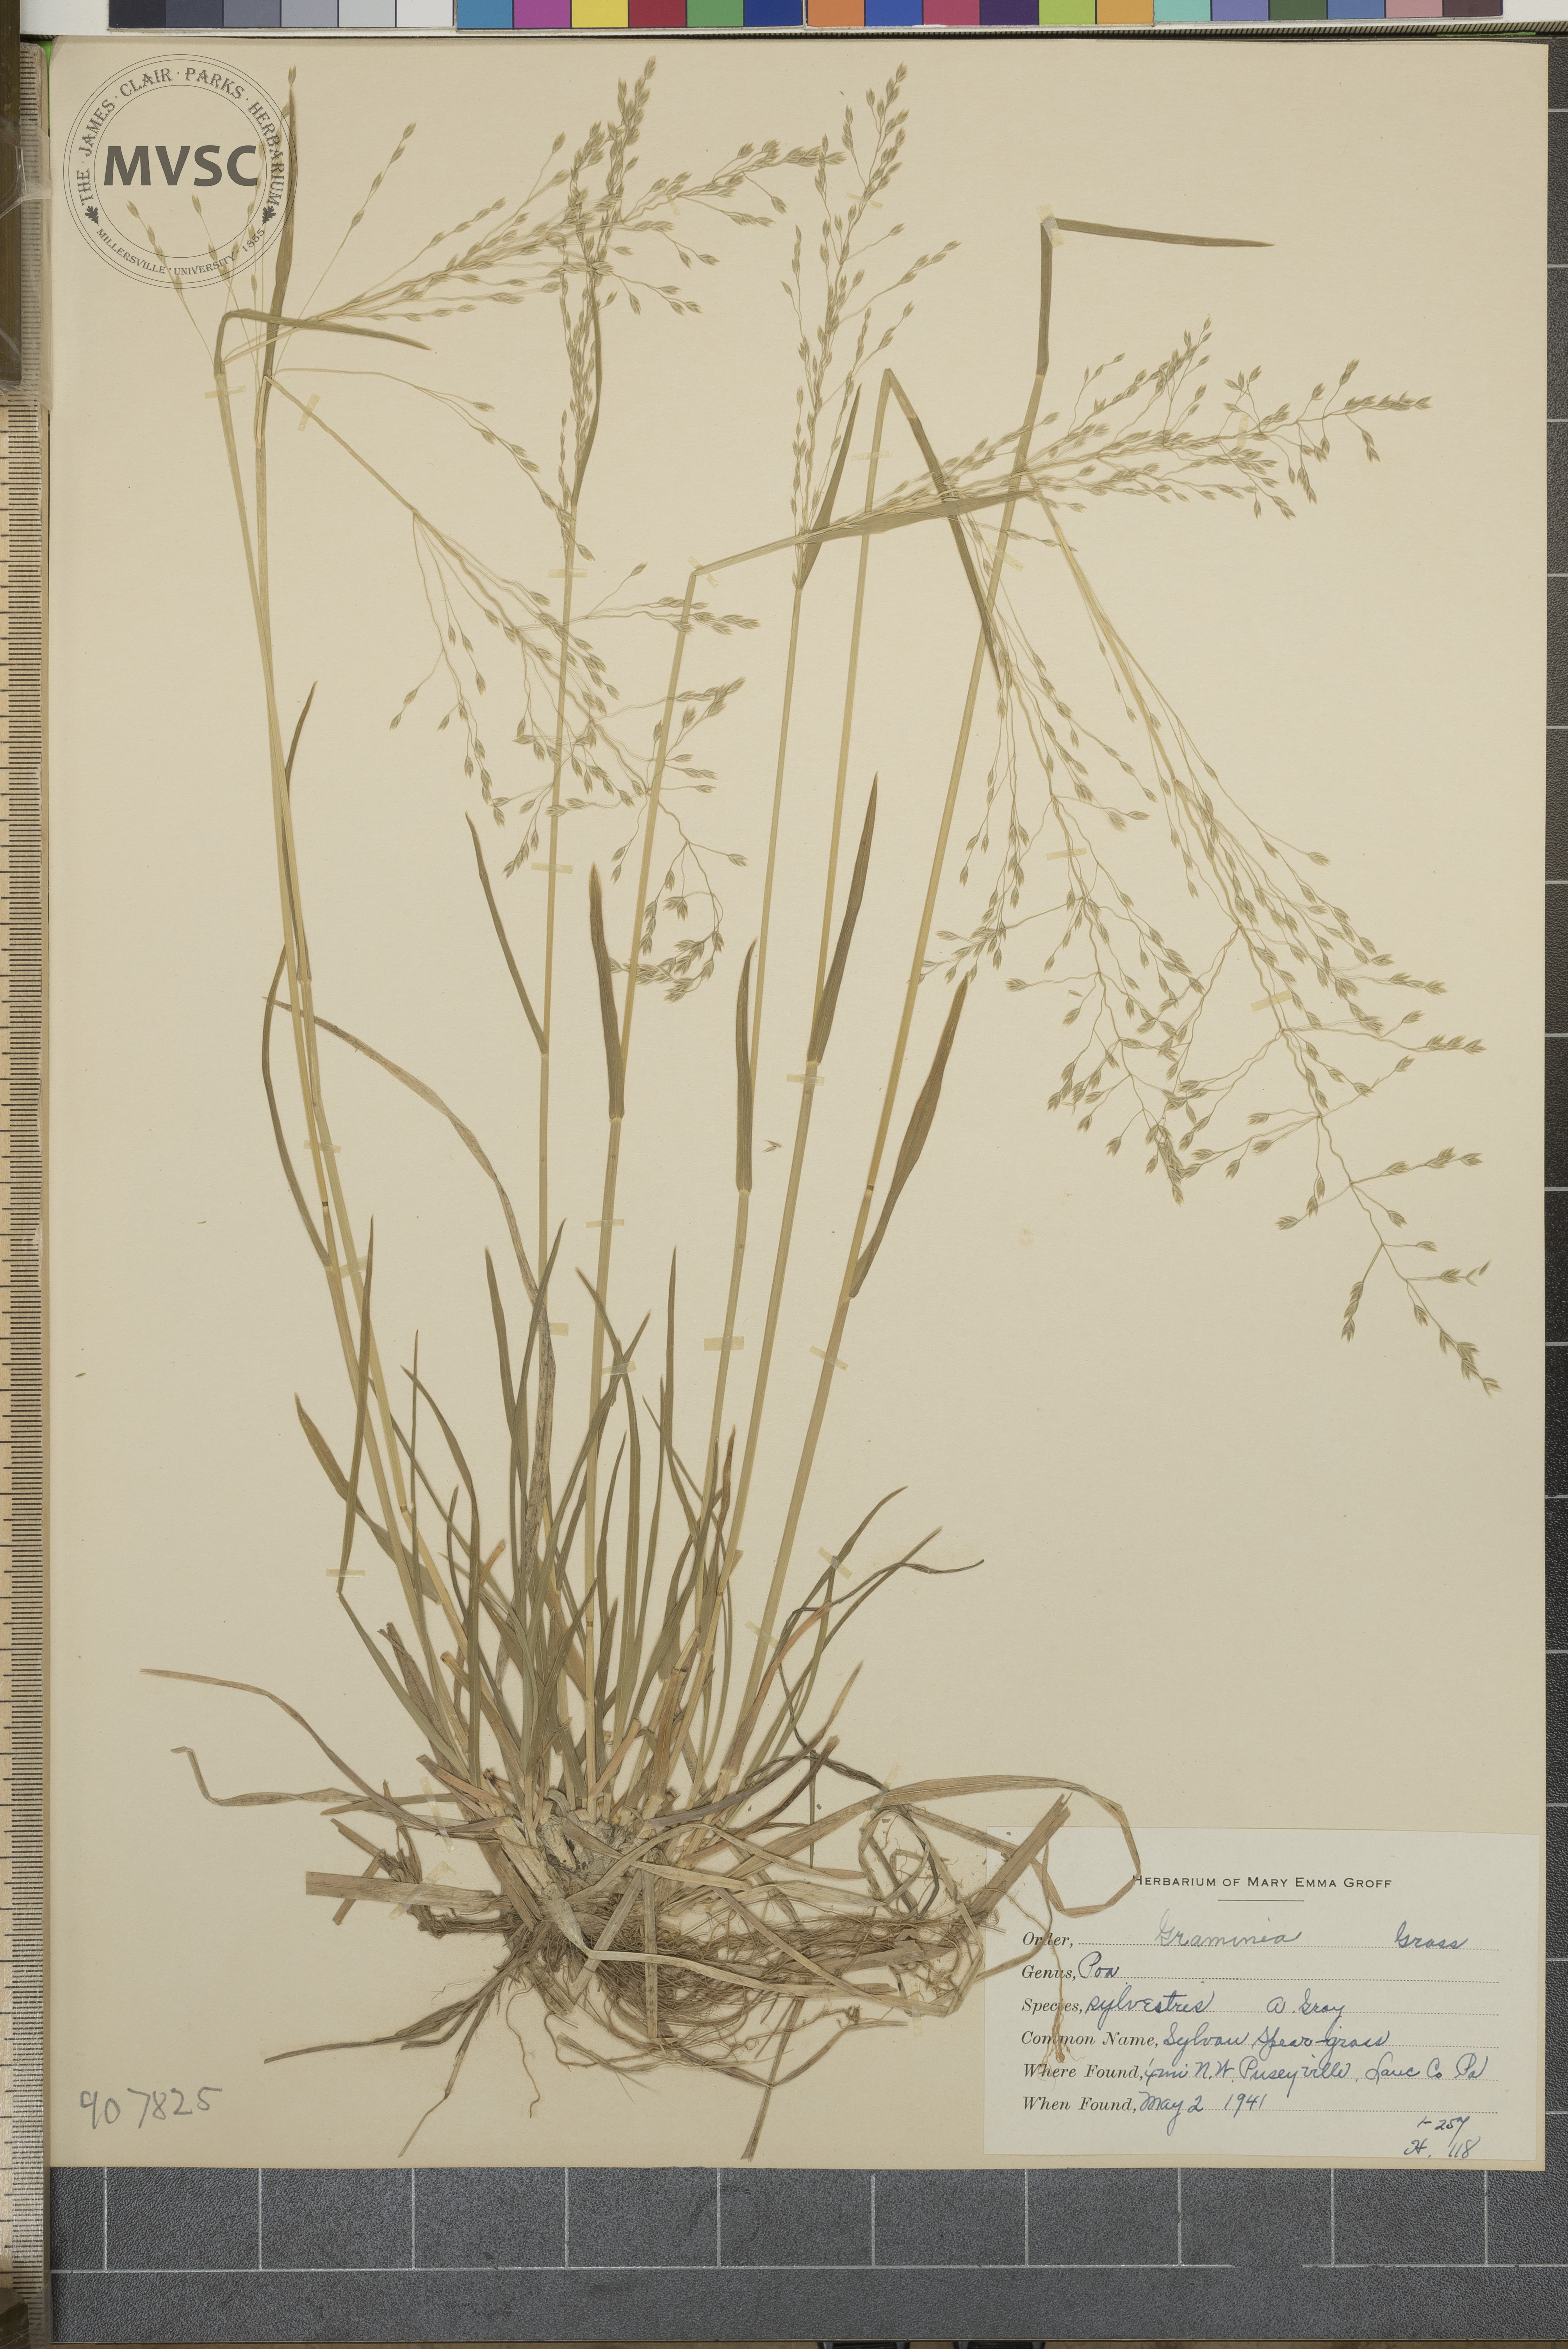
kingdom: Plantae
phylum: Tracheophyta
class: Liliopsida
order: Poales
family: Poaceae
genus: Poa
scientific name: Poa sylvestris
